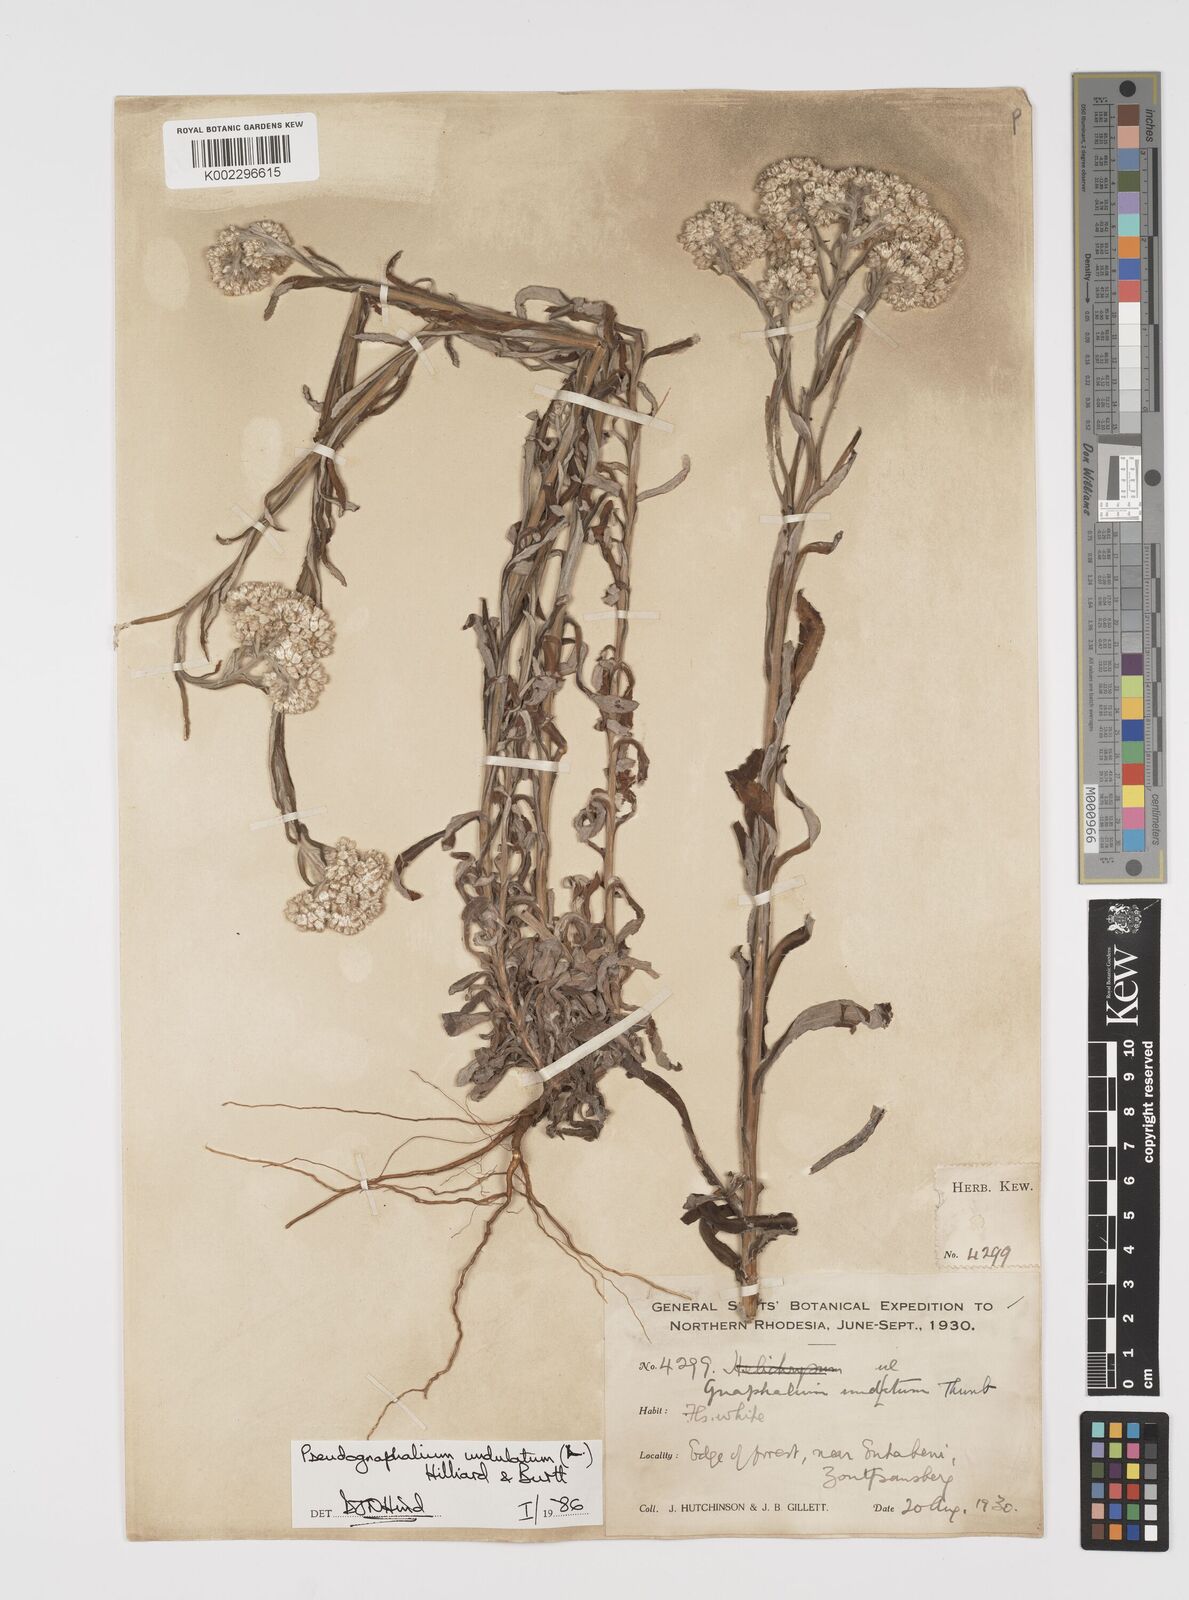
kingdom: Plantae
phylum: Tracheophyta
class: Magnoliopsida
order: Asterales
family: Asteraceae
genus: Pseudognaphalium
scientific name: Pseudognaphalium undulatum
